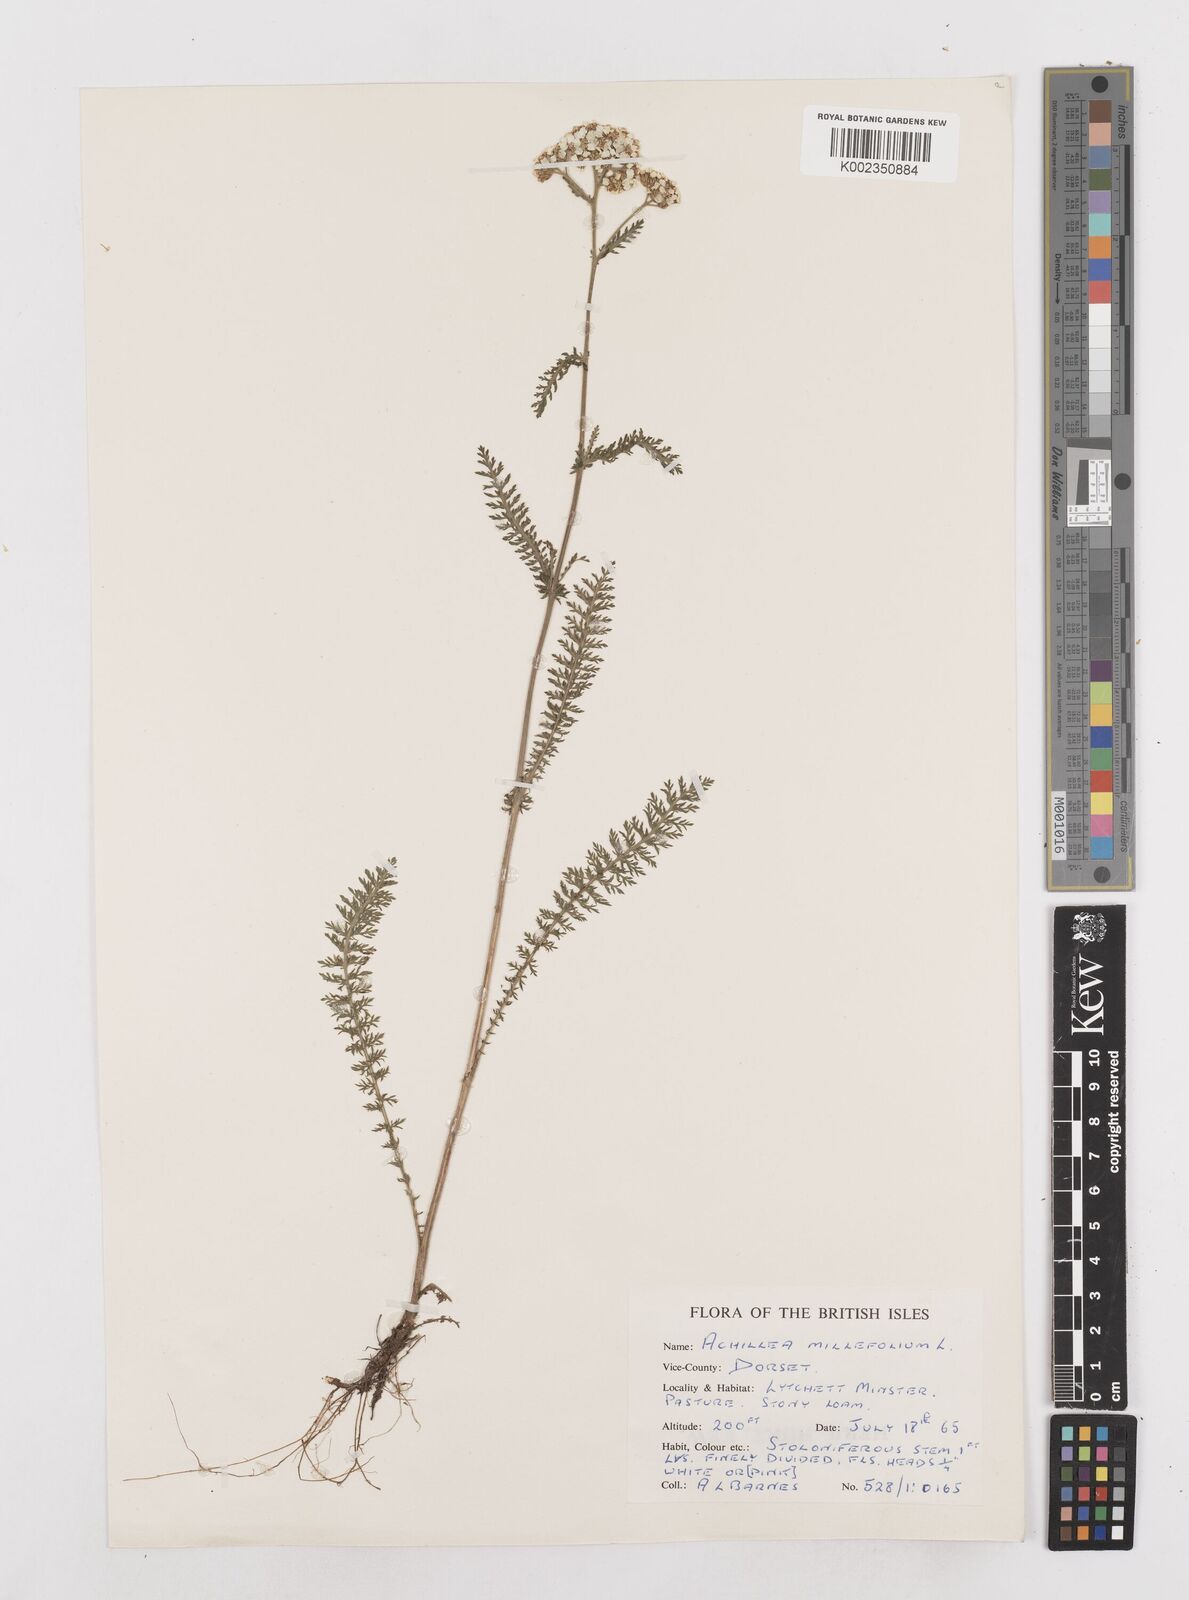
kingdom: Plantae
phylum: Tracheophyta
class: Magnoliopsida
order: Asterales
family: Asteraceae
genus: Achillea
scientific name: Achillea millefolium
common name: Yarrow
